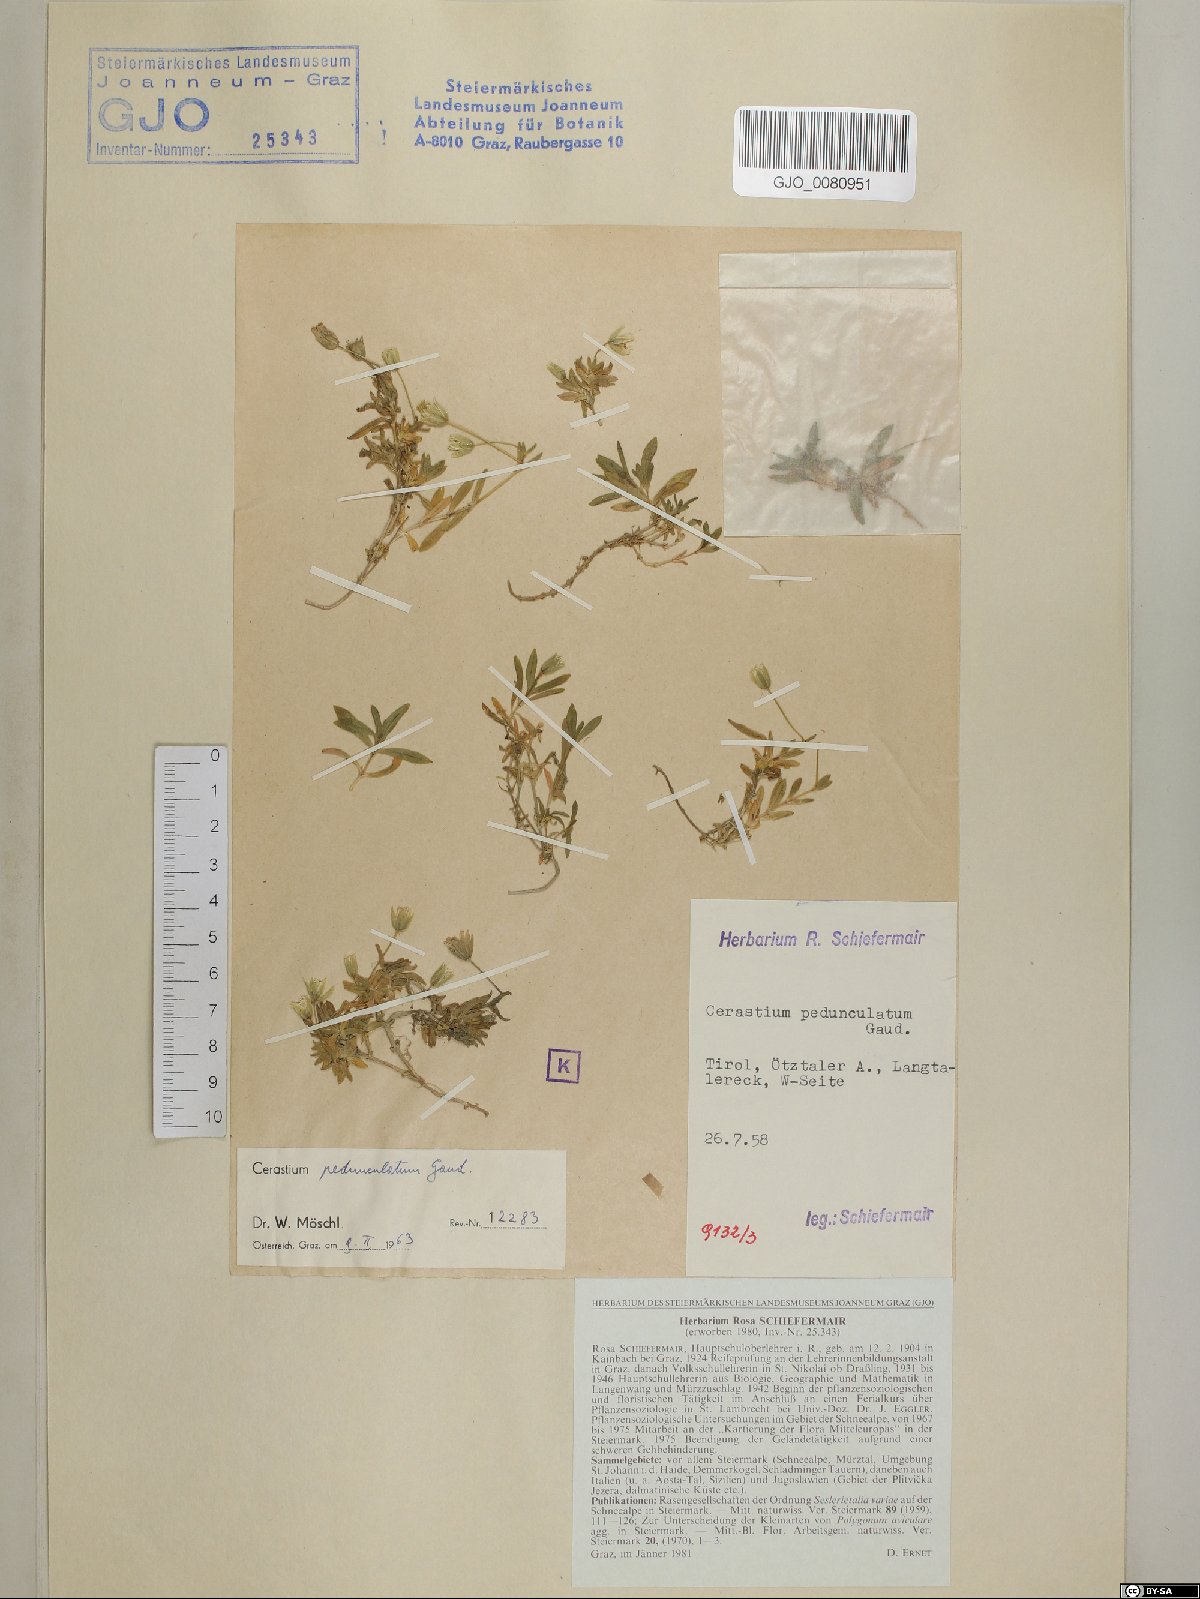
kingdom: Plantae
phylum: Tracheophyta
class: Magnoliopsida
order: Caryophyllales
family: Caryophyllaceae
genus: Cerastium
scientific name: Cerastium pedunculatum
